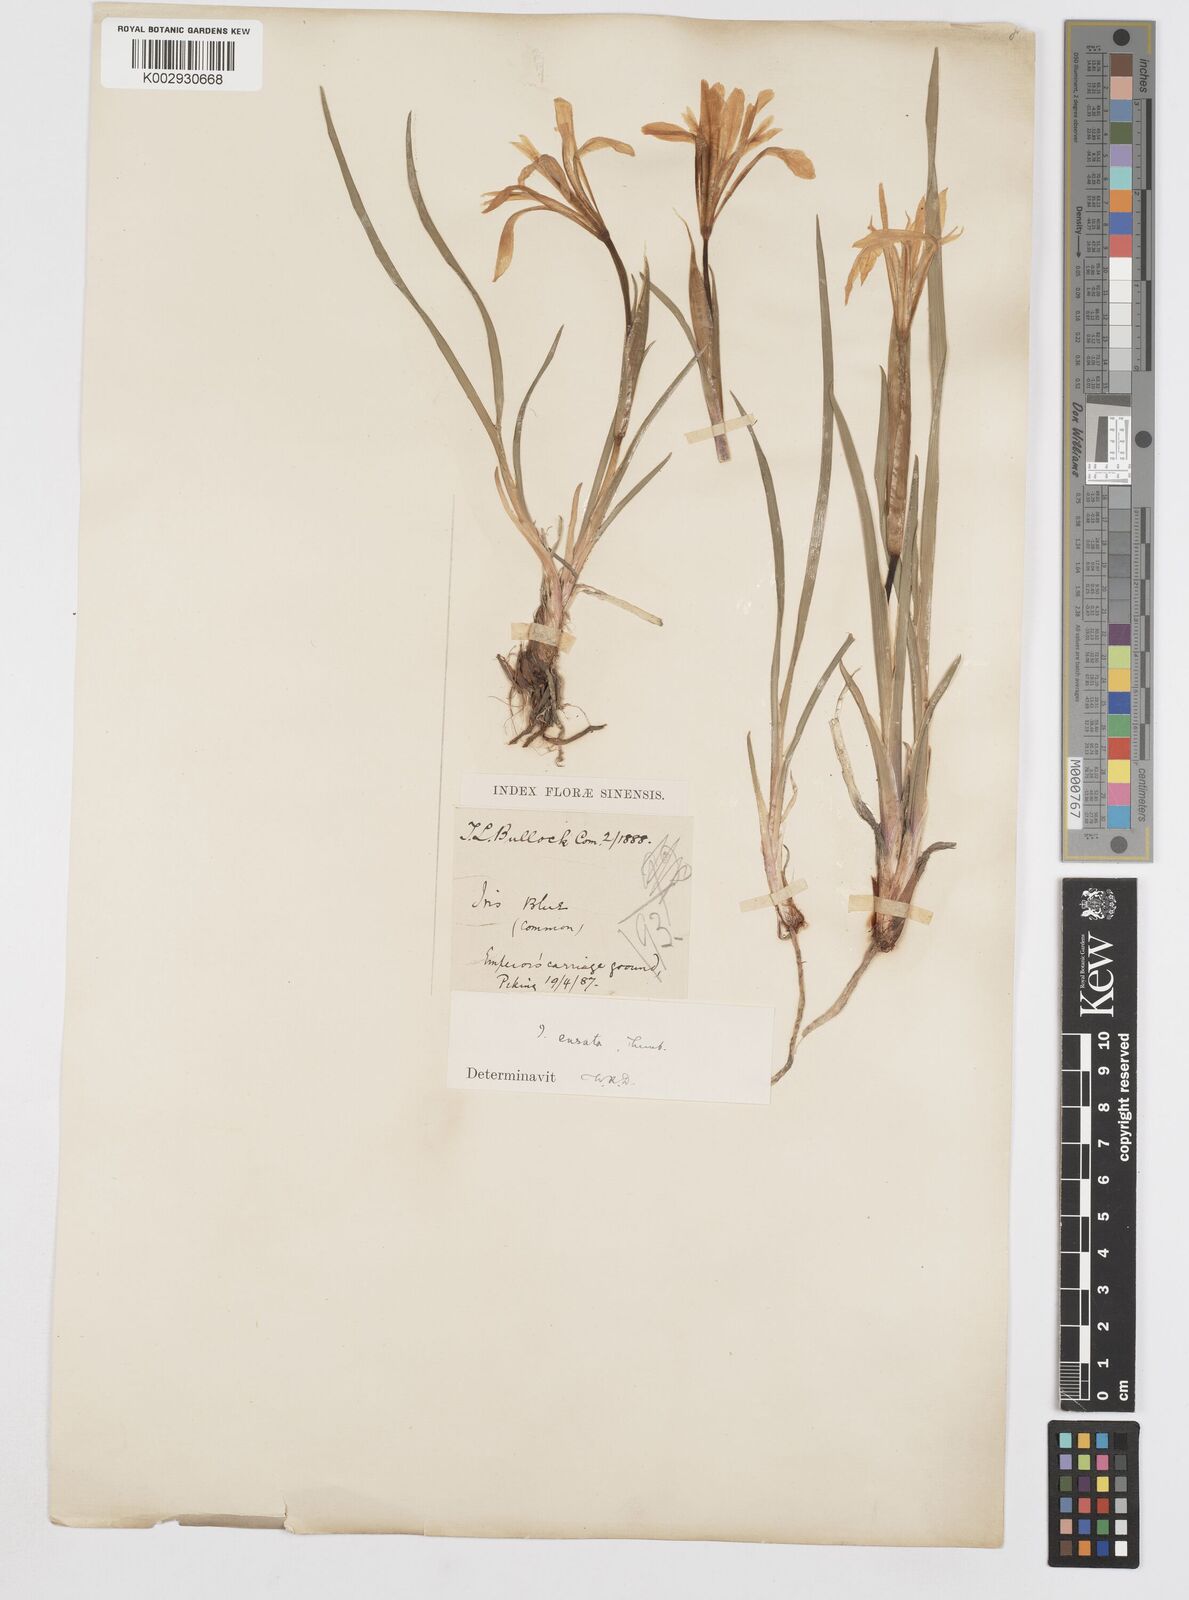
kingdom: Plantae
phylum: Tracheophyta
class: Liliopsida
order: Asparagales
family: Iridaceae
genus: Iris
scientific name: Iris ensata
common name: Beaked iris
